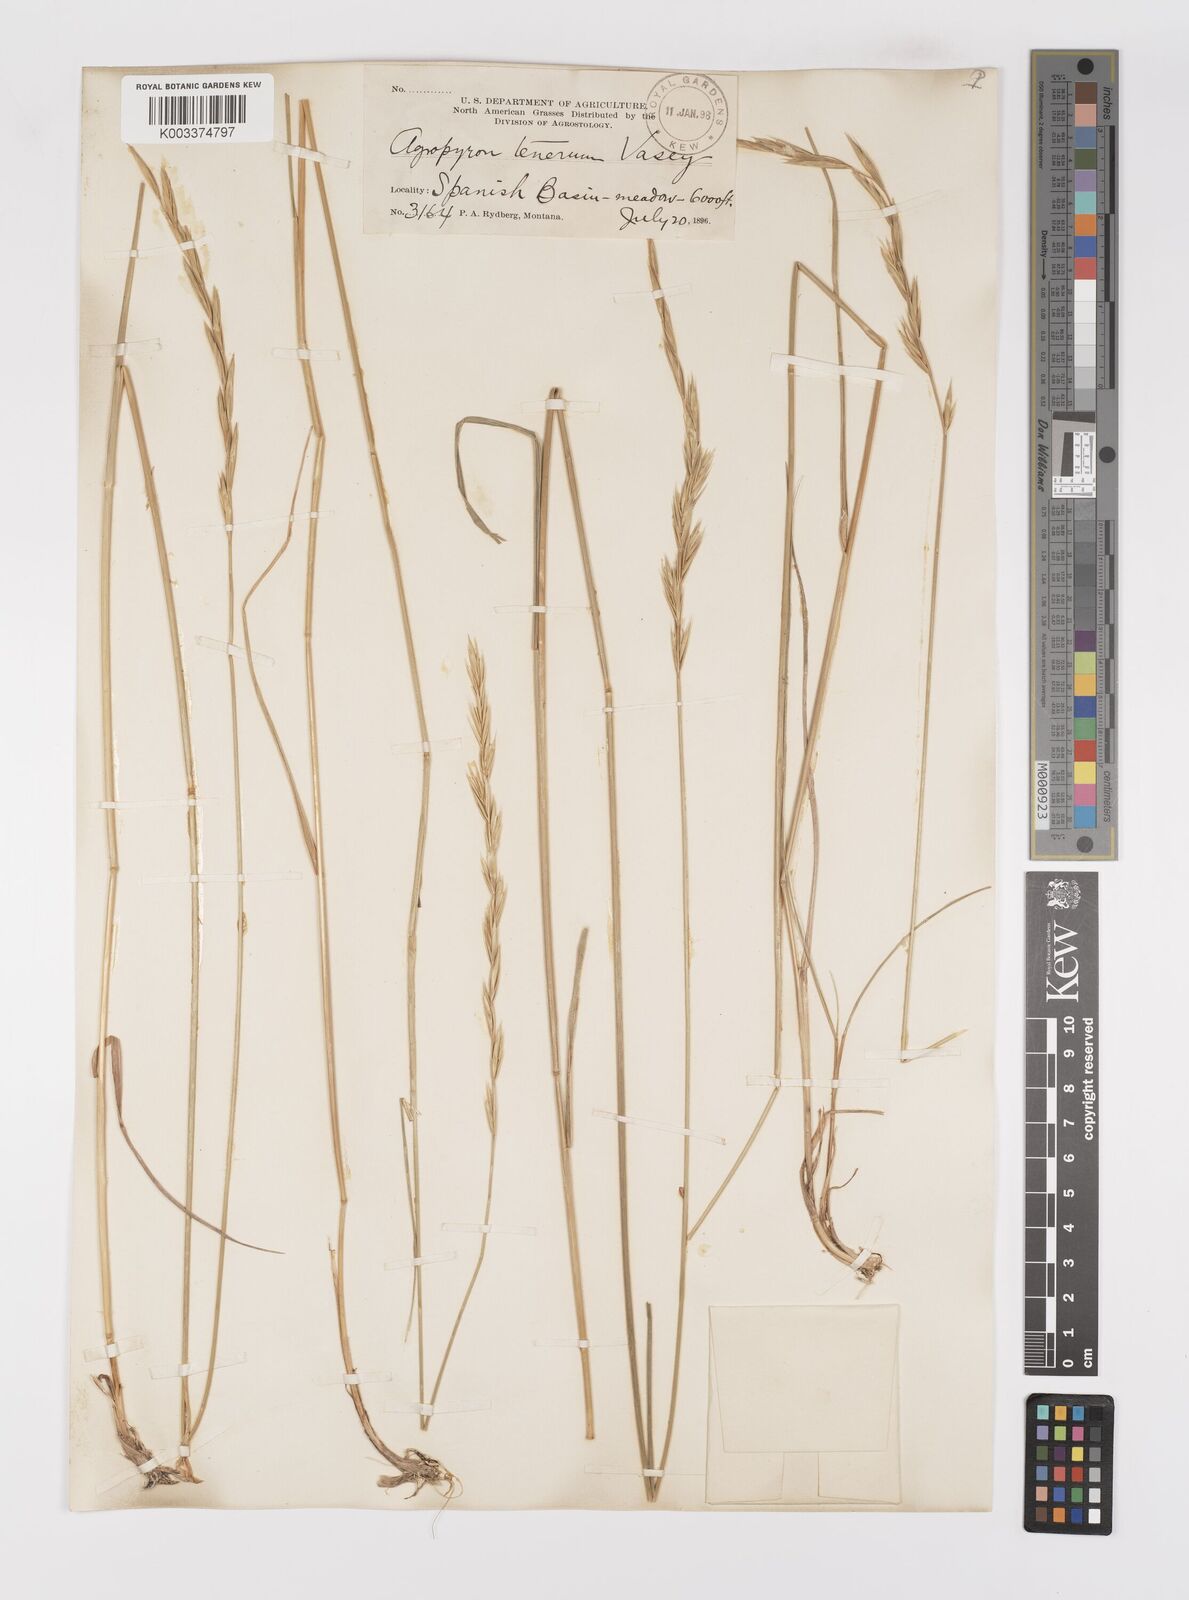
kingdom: Plantae
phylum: Tracheophyta
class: Liliopsida
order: Poales
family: Poaceae
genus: Elymus
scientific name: Elymus violaceus
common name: Arctic wheatgrass
